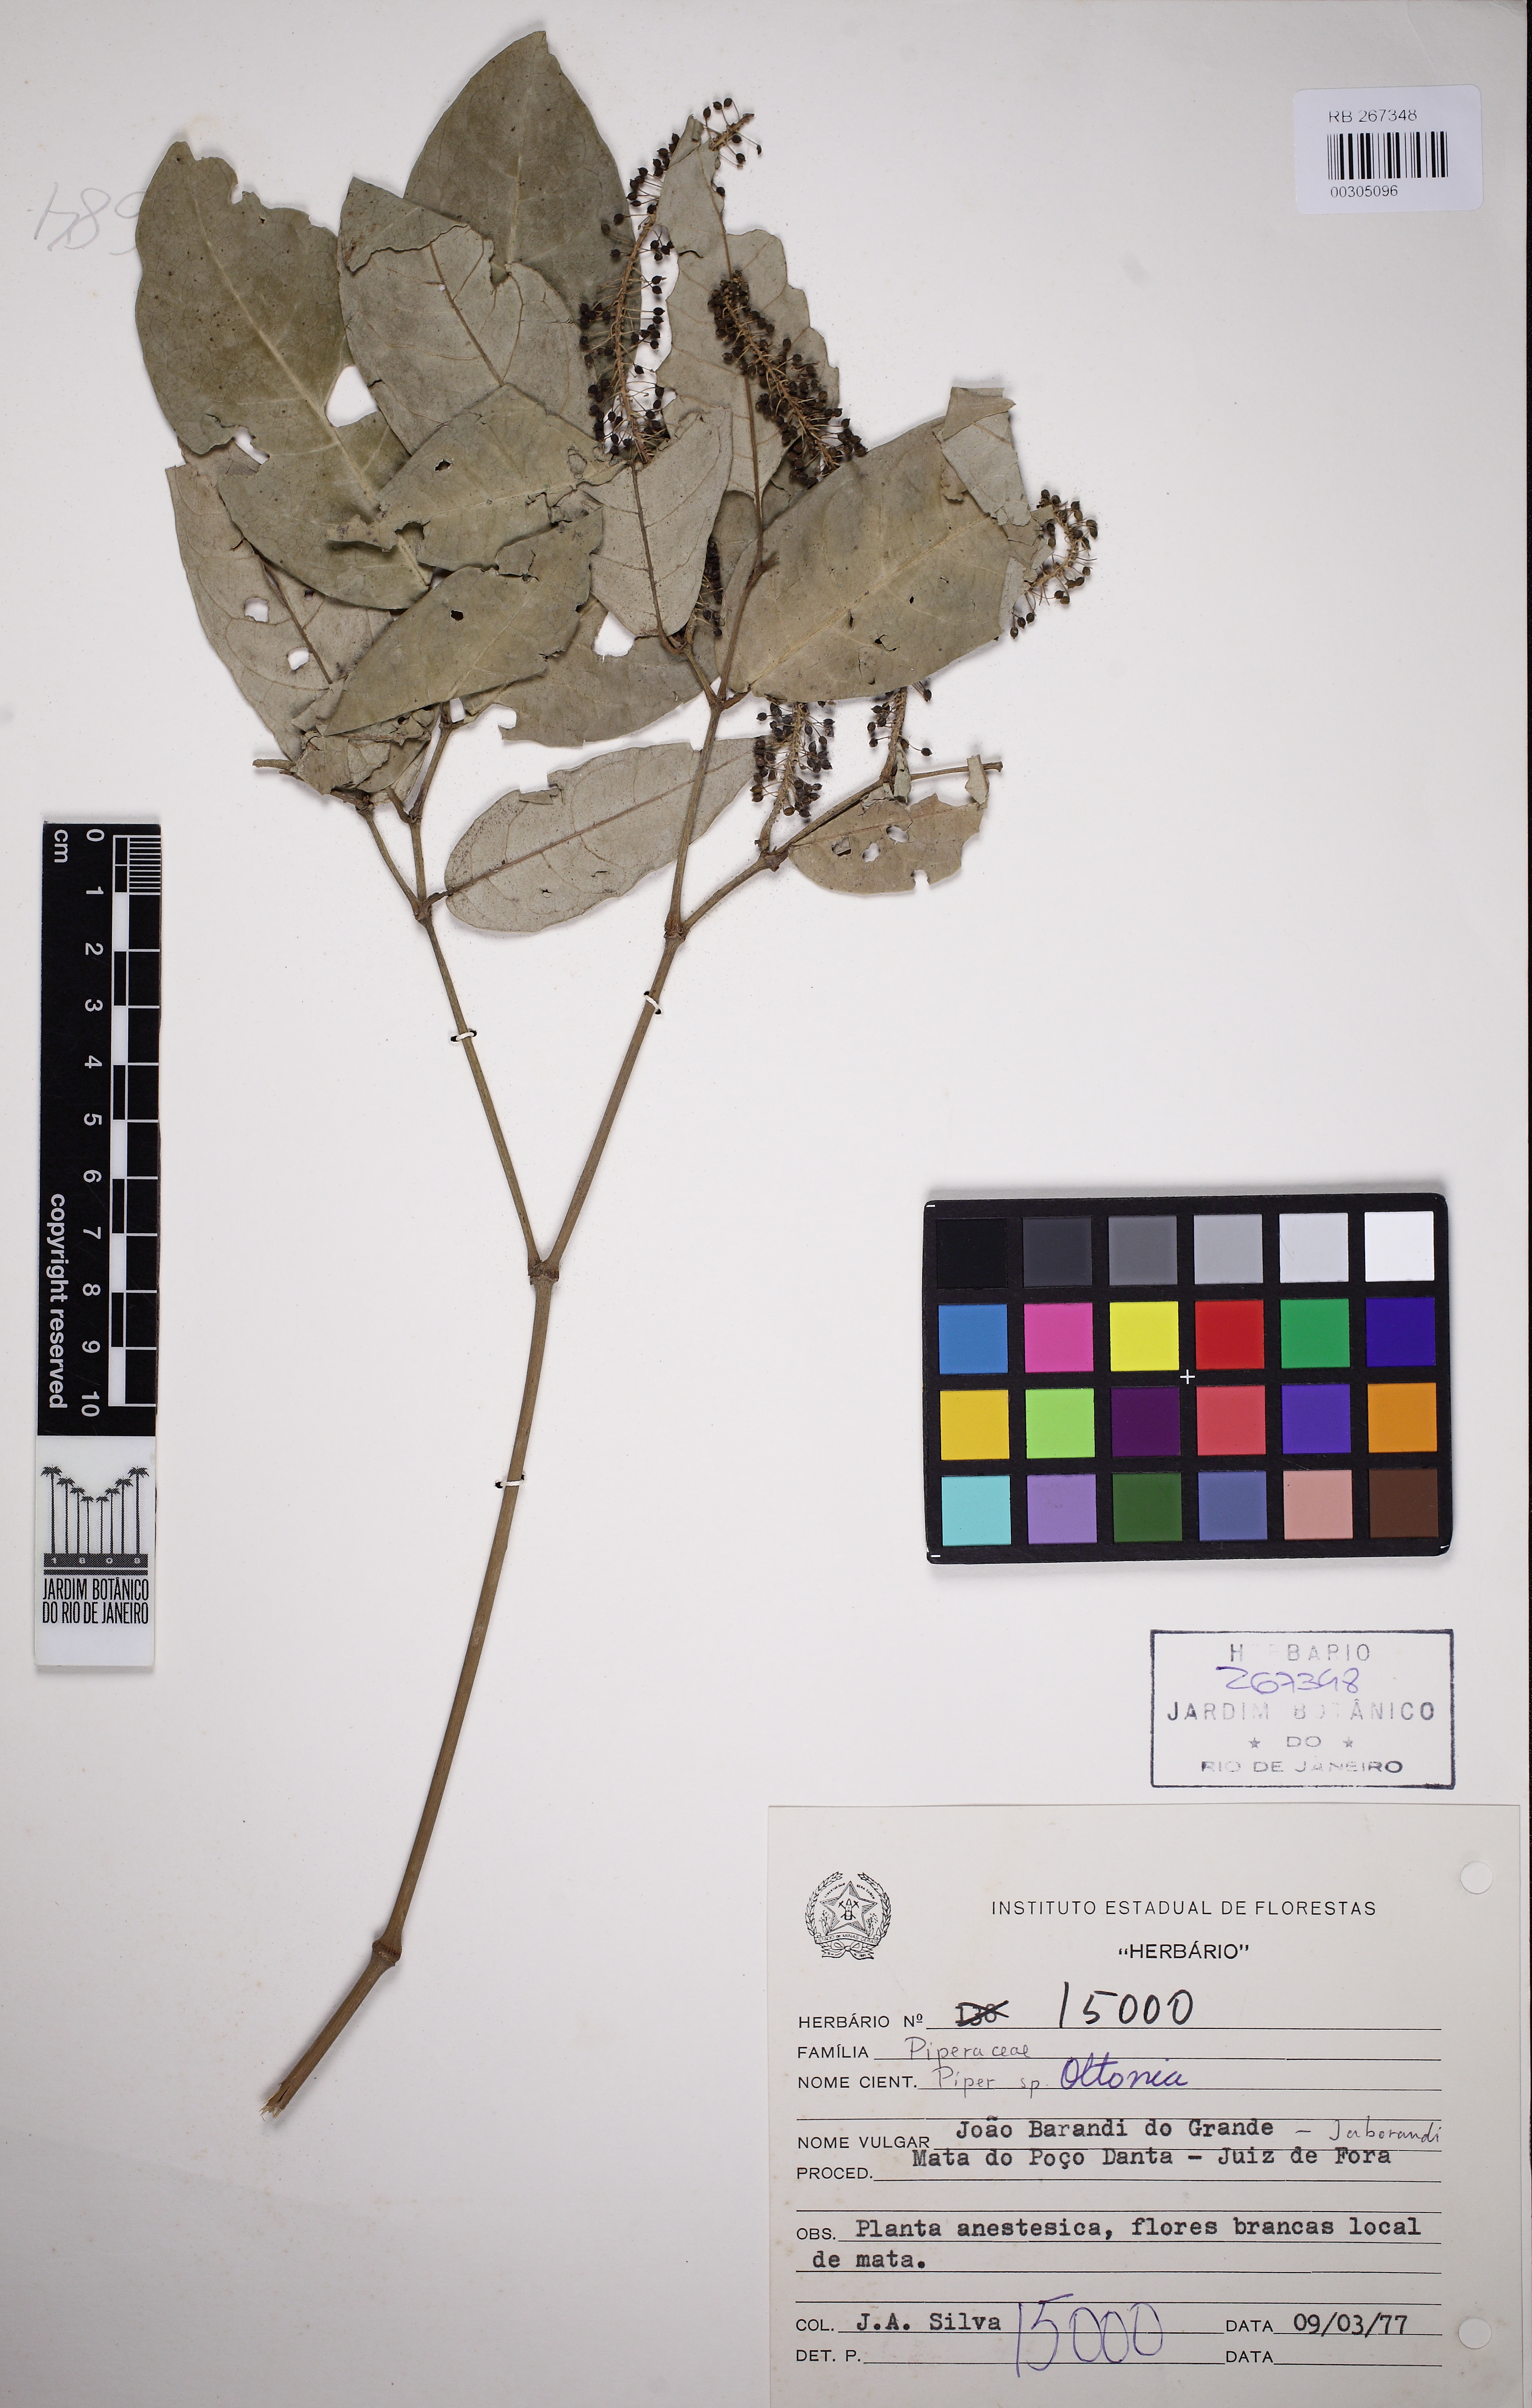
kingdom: Plantae
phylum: Tracheophyta
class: Magnoliopsida
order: Piperales
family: Piperaceae
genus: Piper
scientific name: Piper anisum
